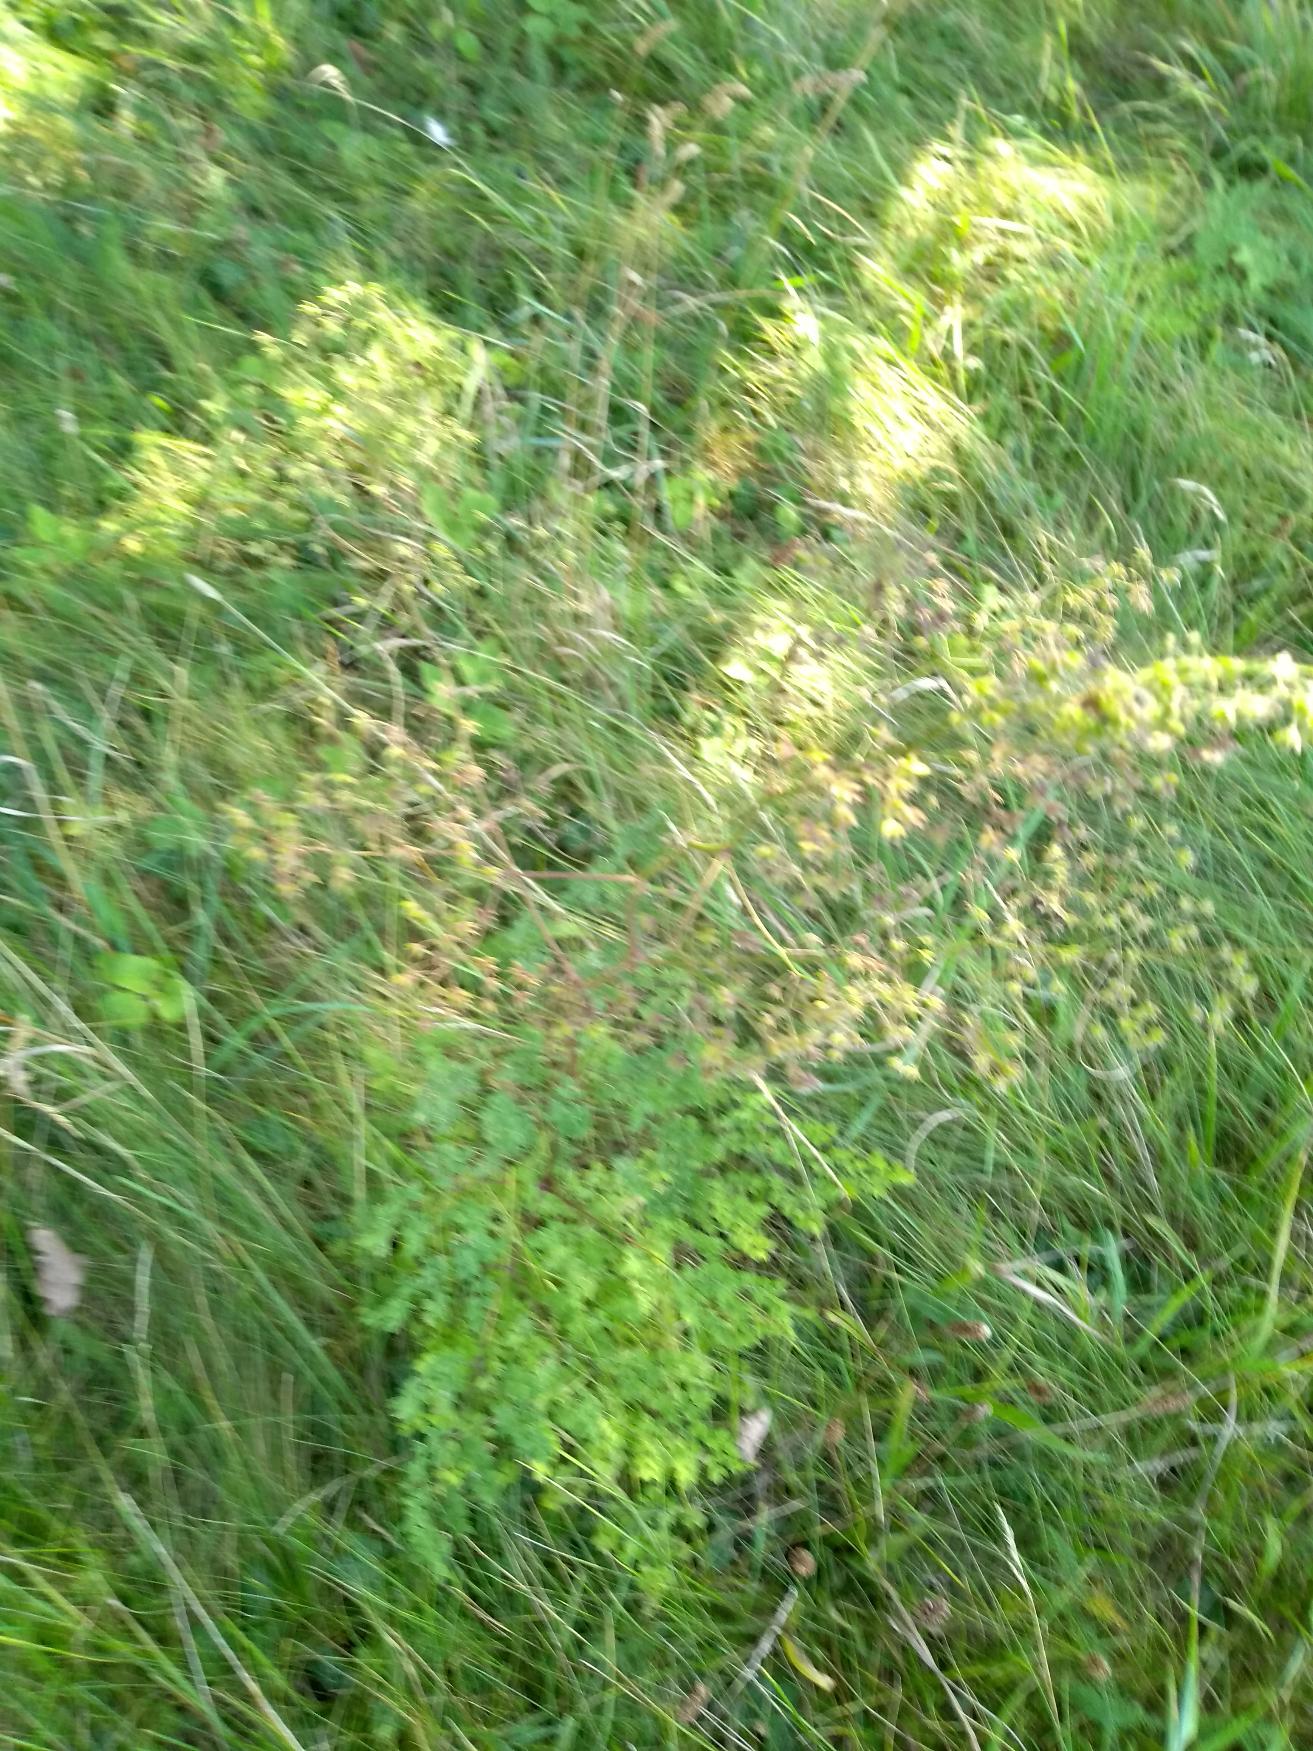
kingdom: Plantae
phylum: Tracheophyta
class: Magnoliopsida
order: Ranunculales
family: Ranunculaceae
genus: Thalictrum
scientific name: Thalictrum minus
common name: Liden frøstjerne
